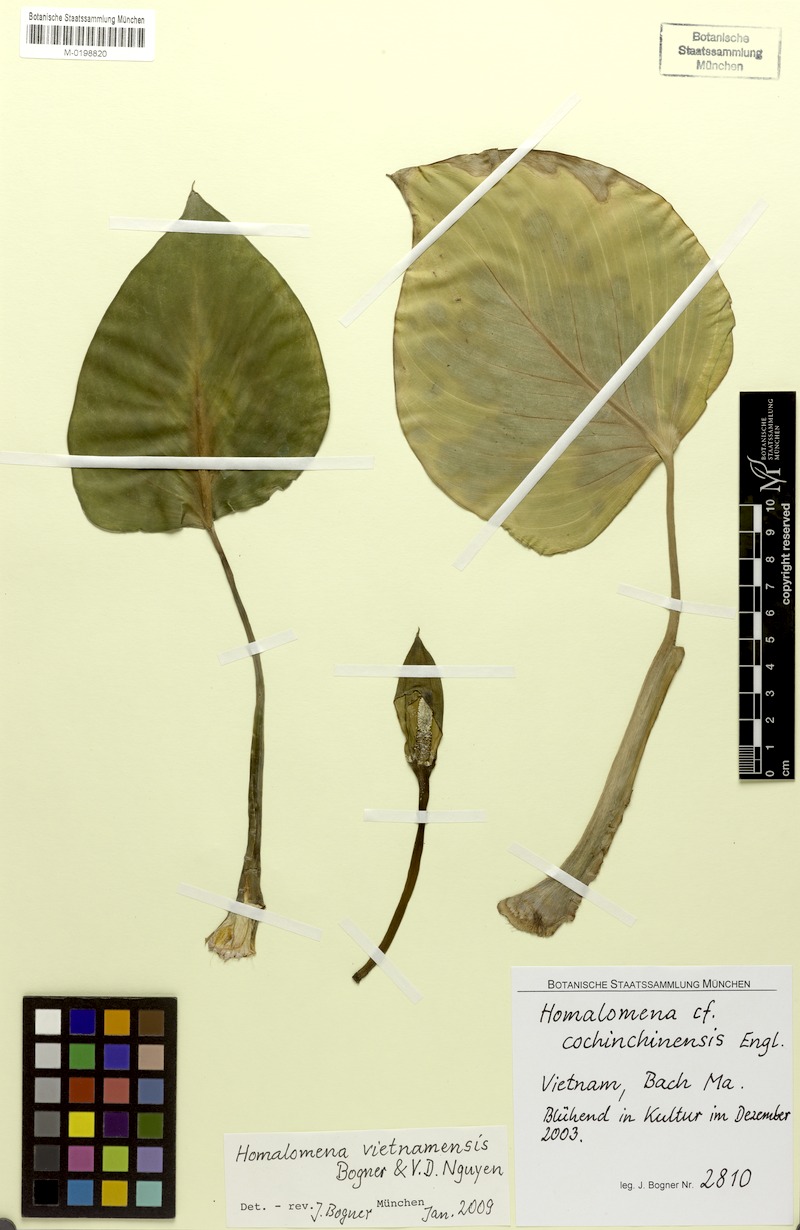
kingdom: Plantae
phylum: Tracheophyta
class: Liliopsida
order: Alismatales
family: Araceae
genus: Homalomena
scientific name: Homalomena vietnamensis
